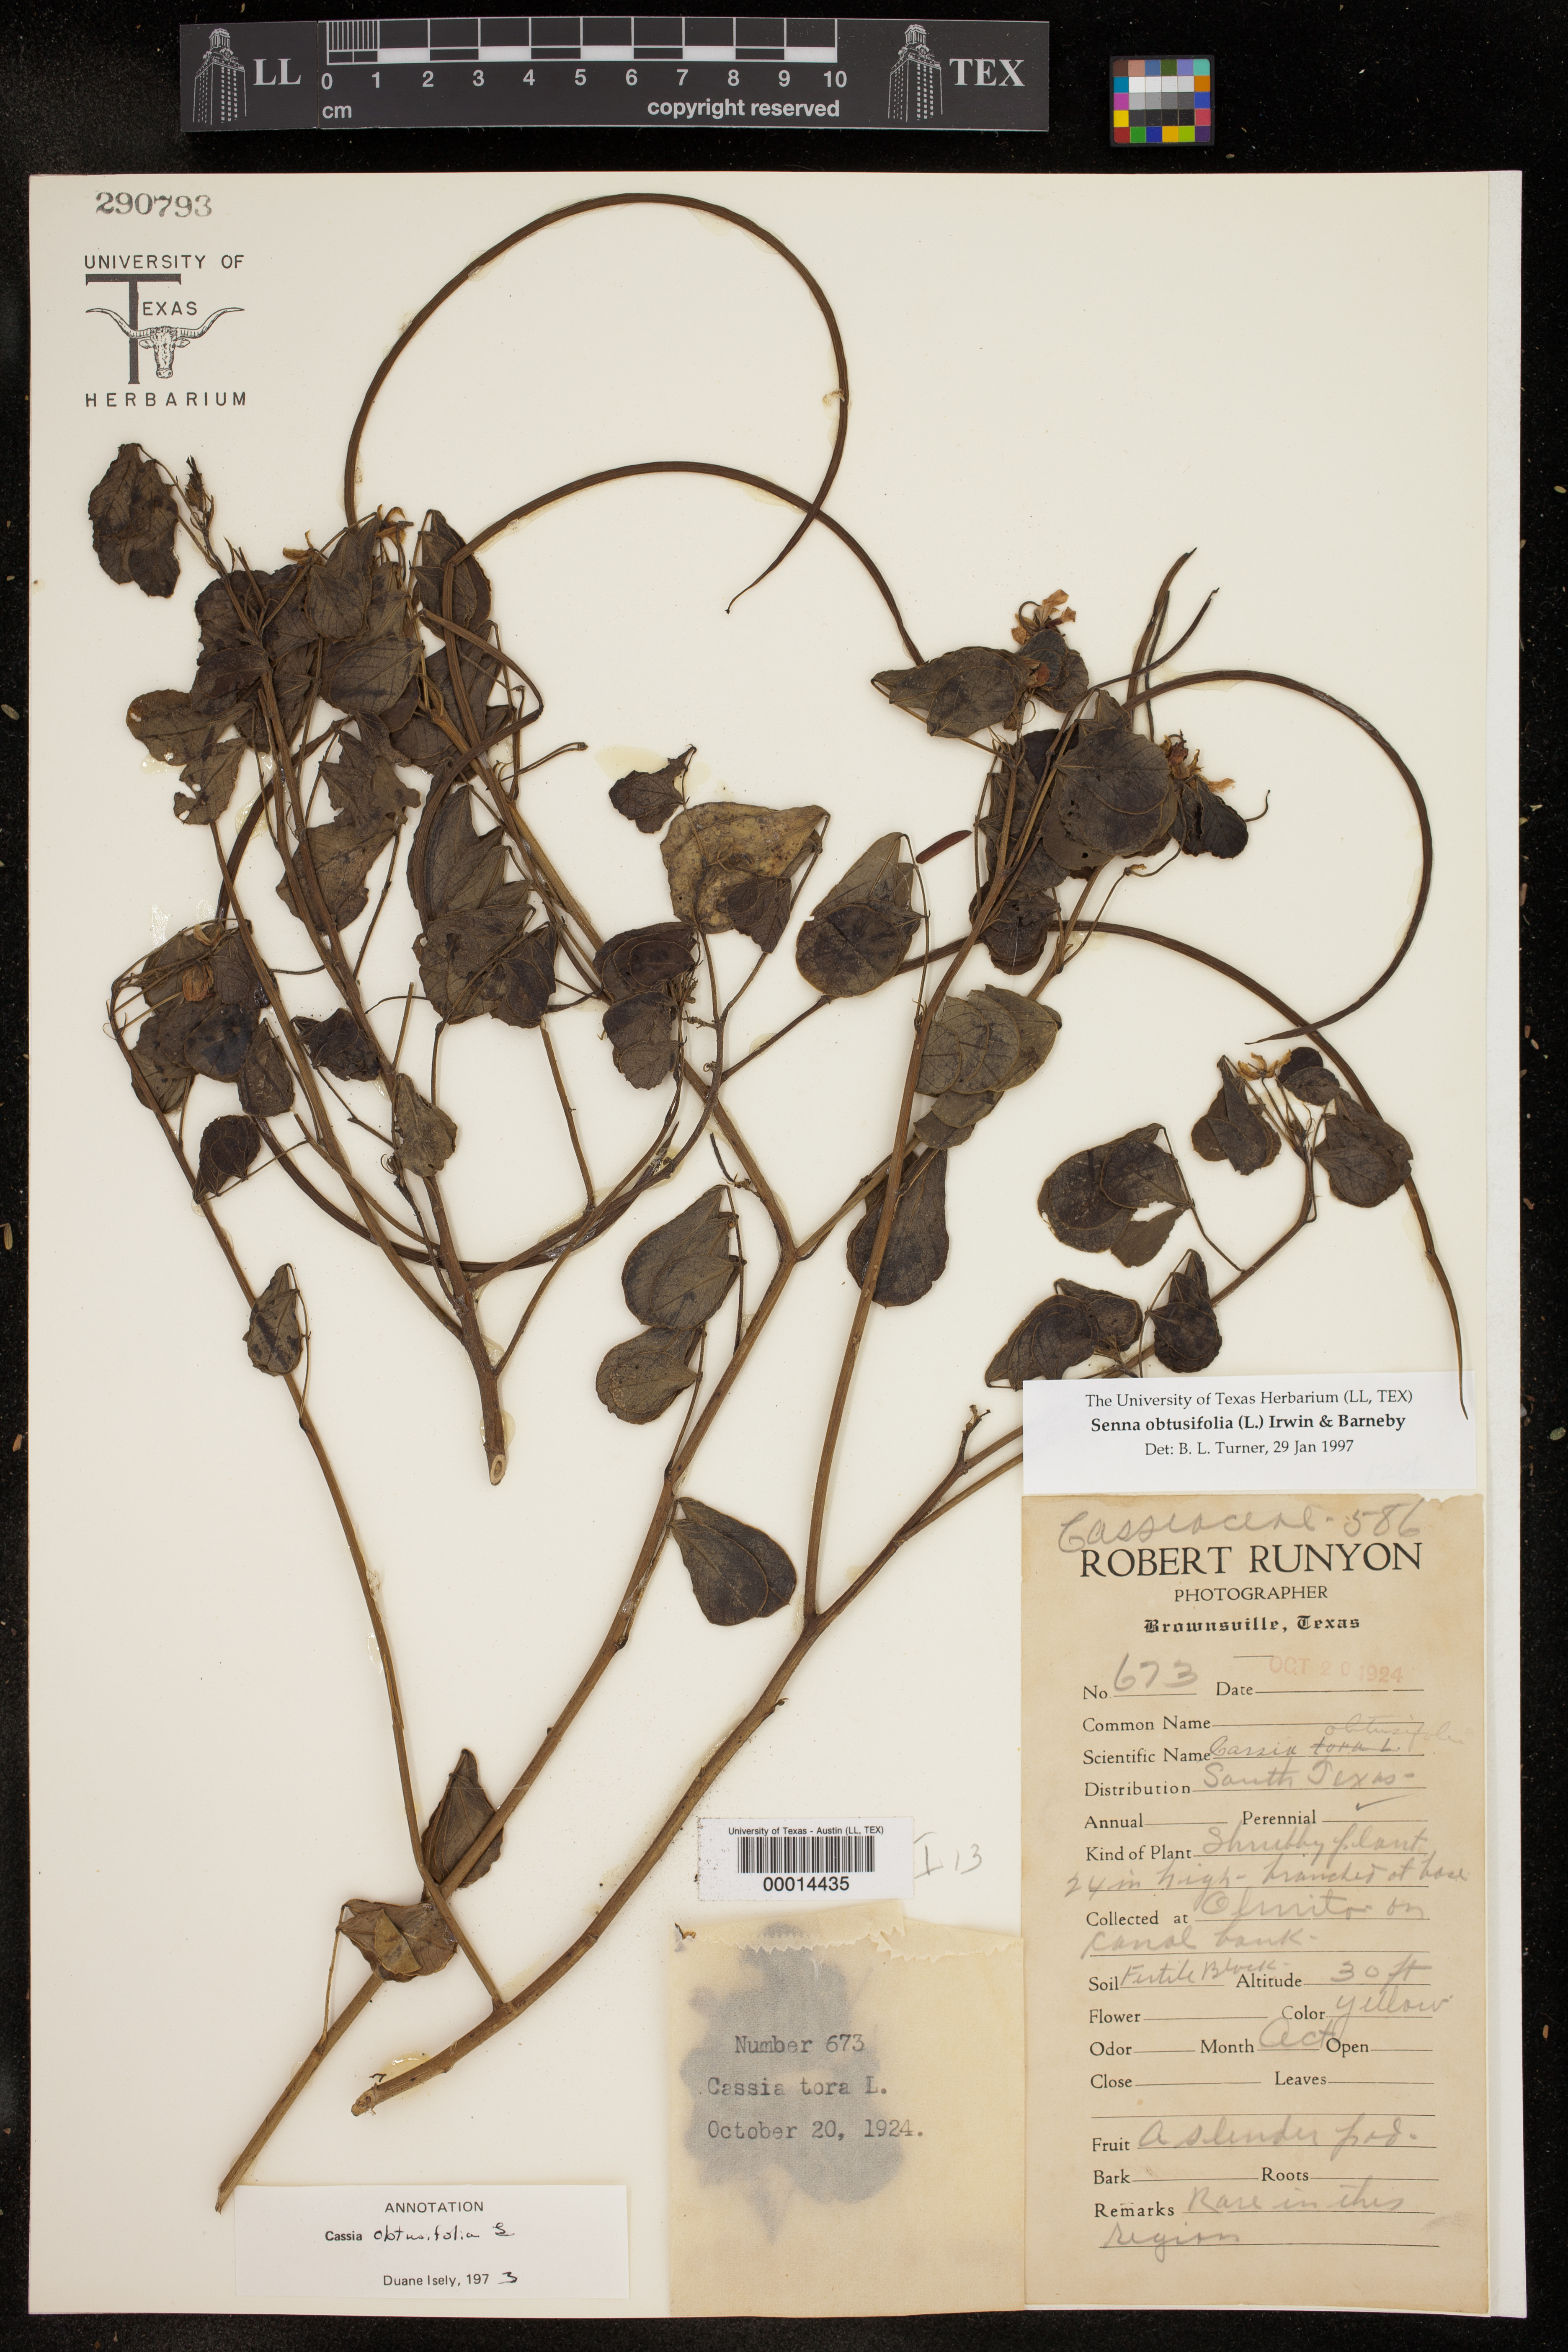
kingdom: Plantae
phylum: Tracheophyta
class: Magnoliopsida
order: Fabales
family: Fabaceae
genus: Senna
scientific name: Senna obtusifolia
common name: Java-bean
